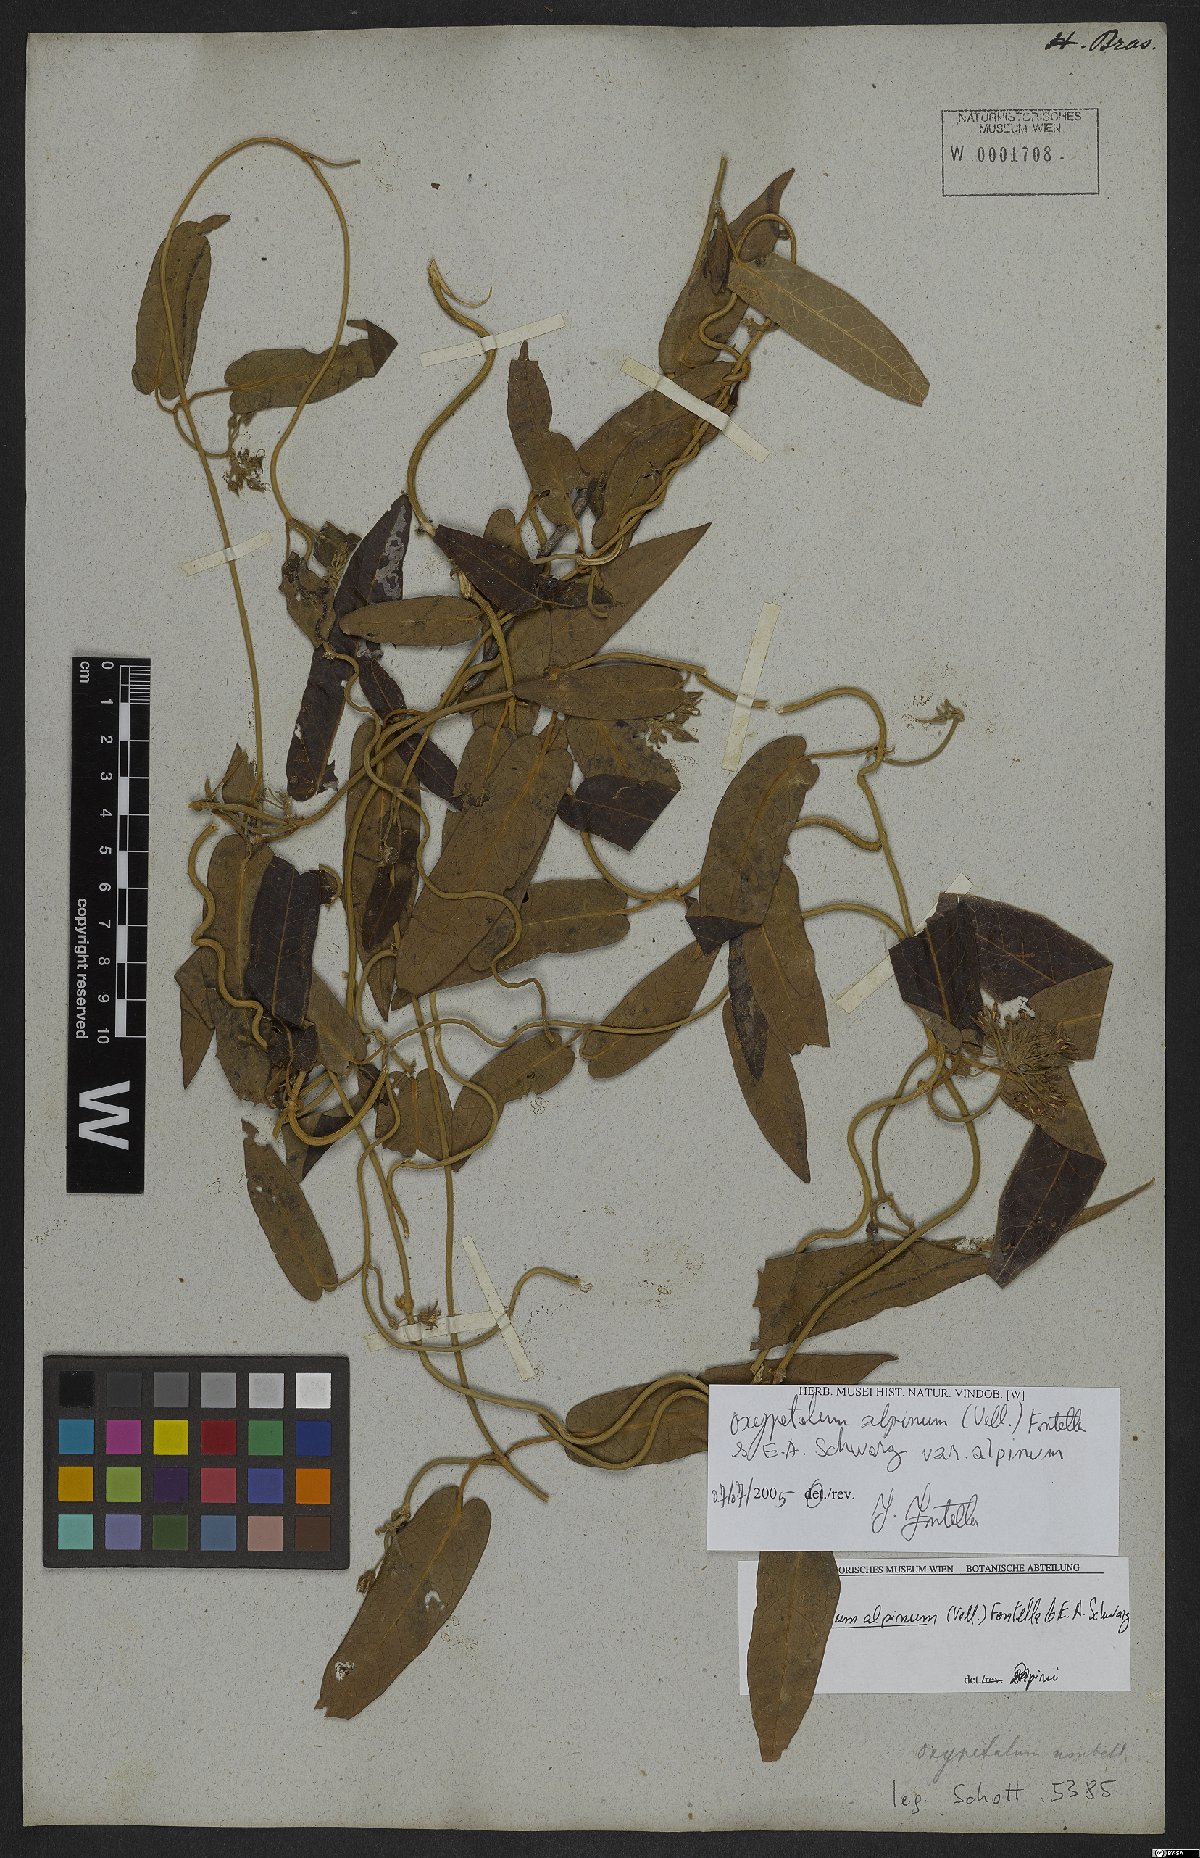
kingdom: Plantae
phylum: Tracheophyta
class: Magnoliopsida
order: Gentianales
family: Apocynaceae
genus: Oxypetalum
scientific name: Oxypetalum alpinum
